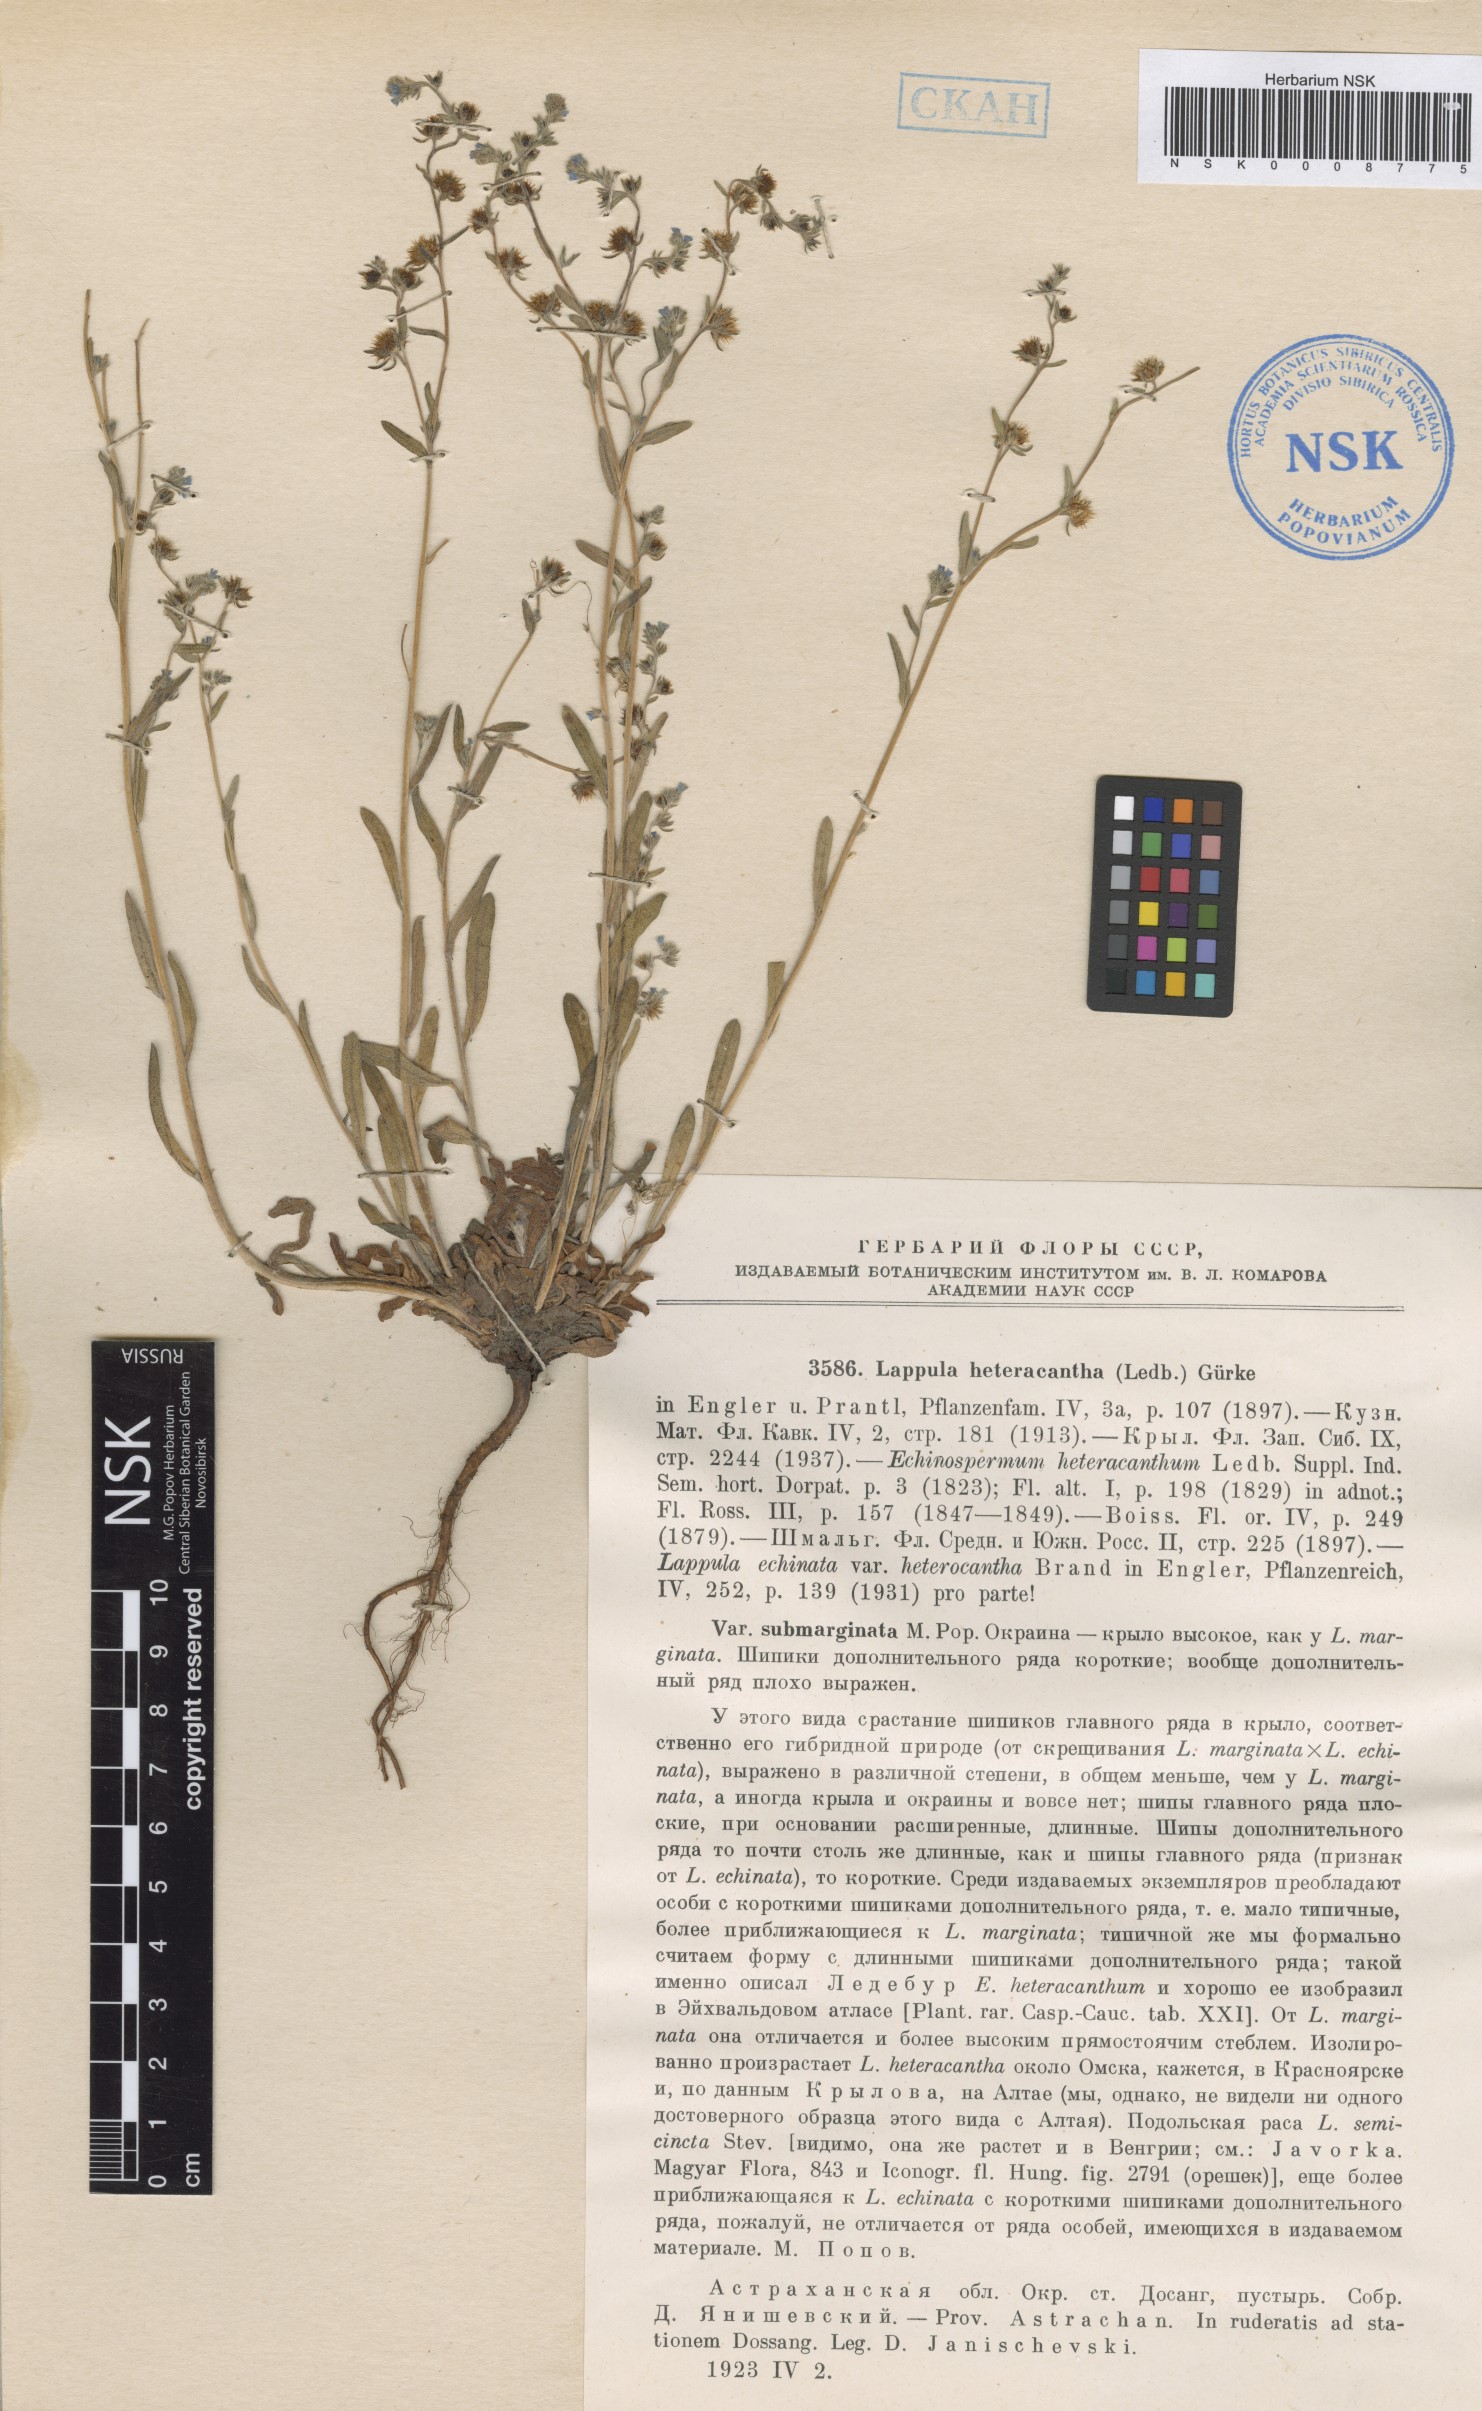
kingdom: Plantae
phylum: Tracheophyta
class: Magnoliopsida
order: Boraginales
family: Boraginaceae
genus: Lappula
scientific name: Lappula heteracantha
